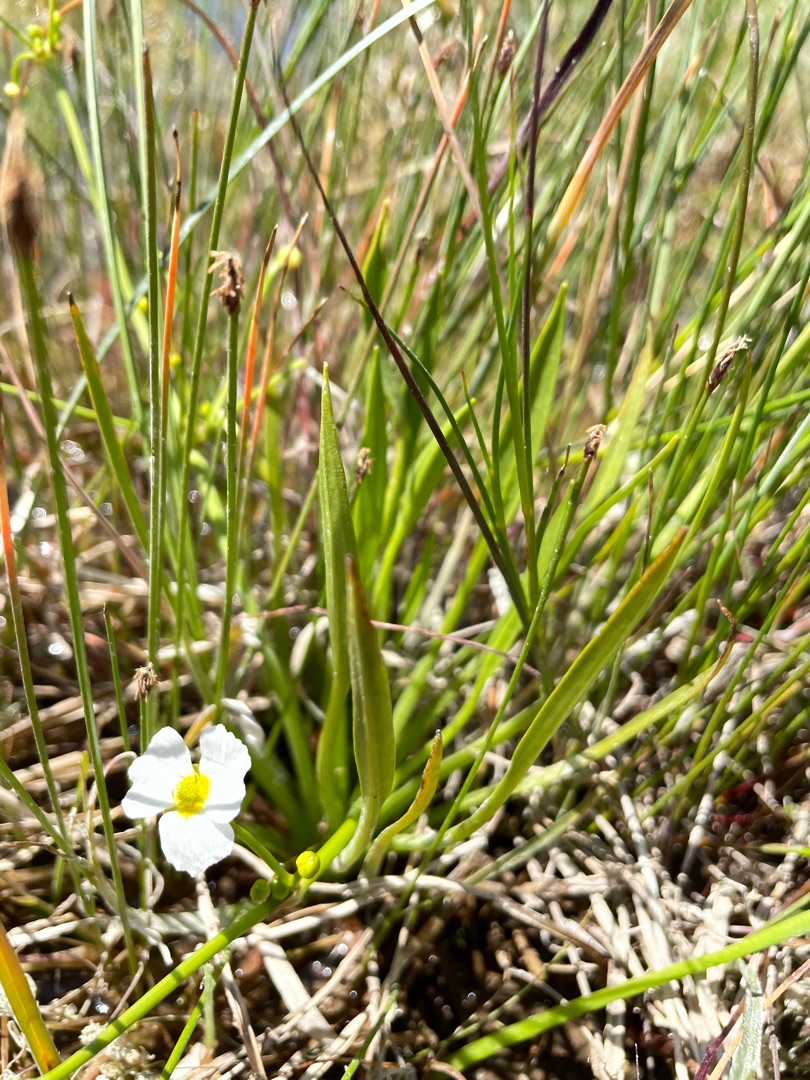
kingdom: Plantae
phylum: Tracheophyta
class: Liliopsida
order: Alismatales
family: Alismataceae
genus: Alisma
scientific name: Alisma lanceolatum
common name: Lancet-skeblad
